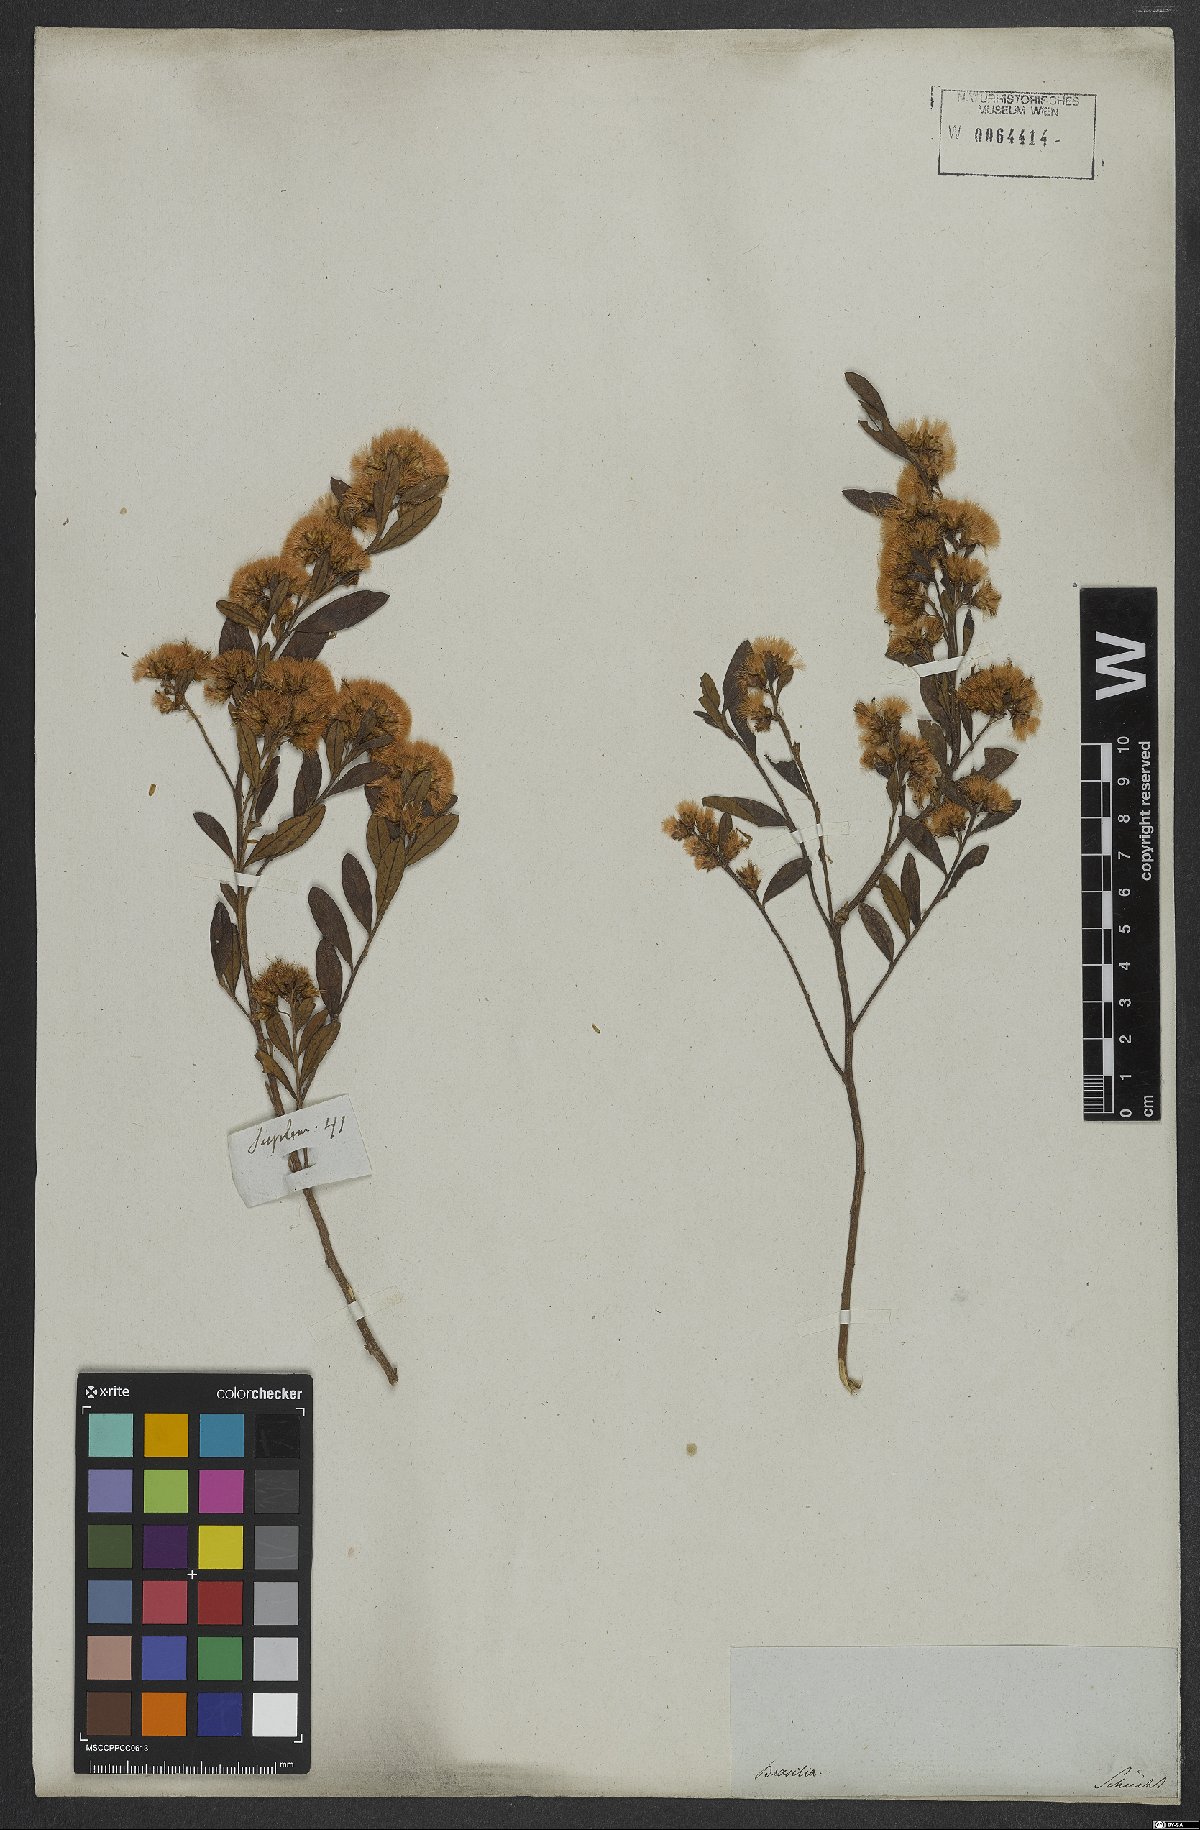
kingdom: Plantae
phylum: Tracheophyta
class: Magnoliopsida
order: Asterales
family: Asteraceae
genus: Vernonanthura
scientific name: Vernonanthura montevidensis
